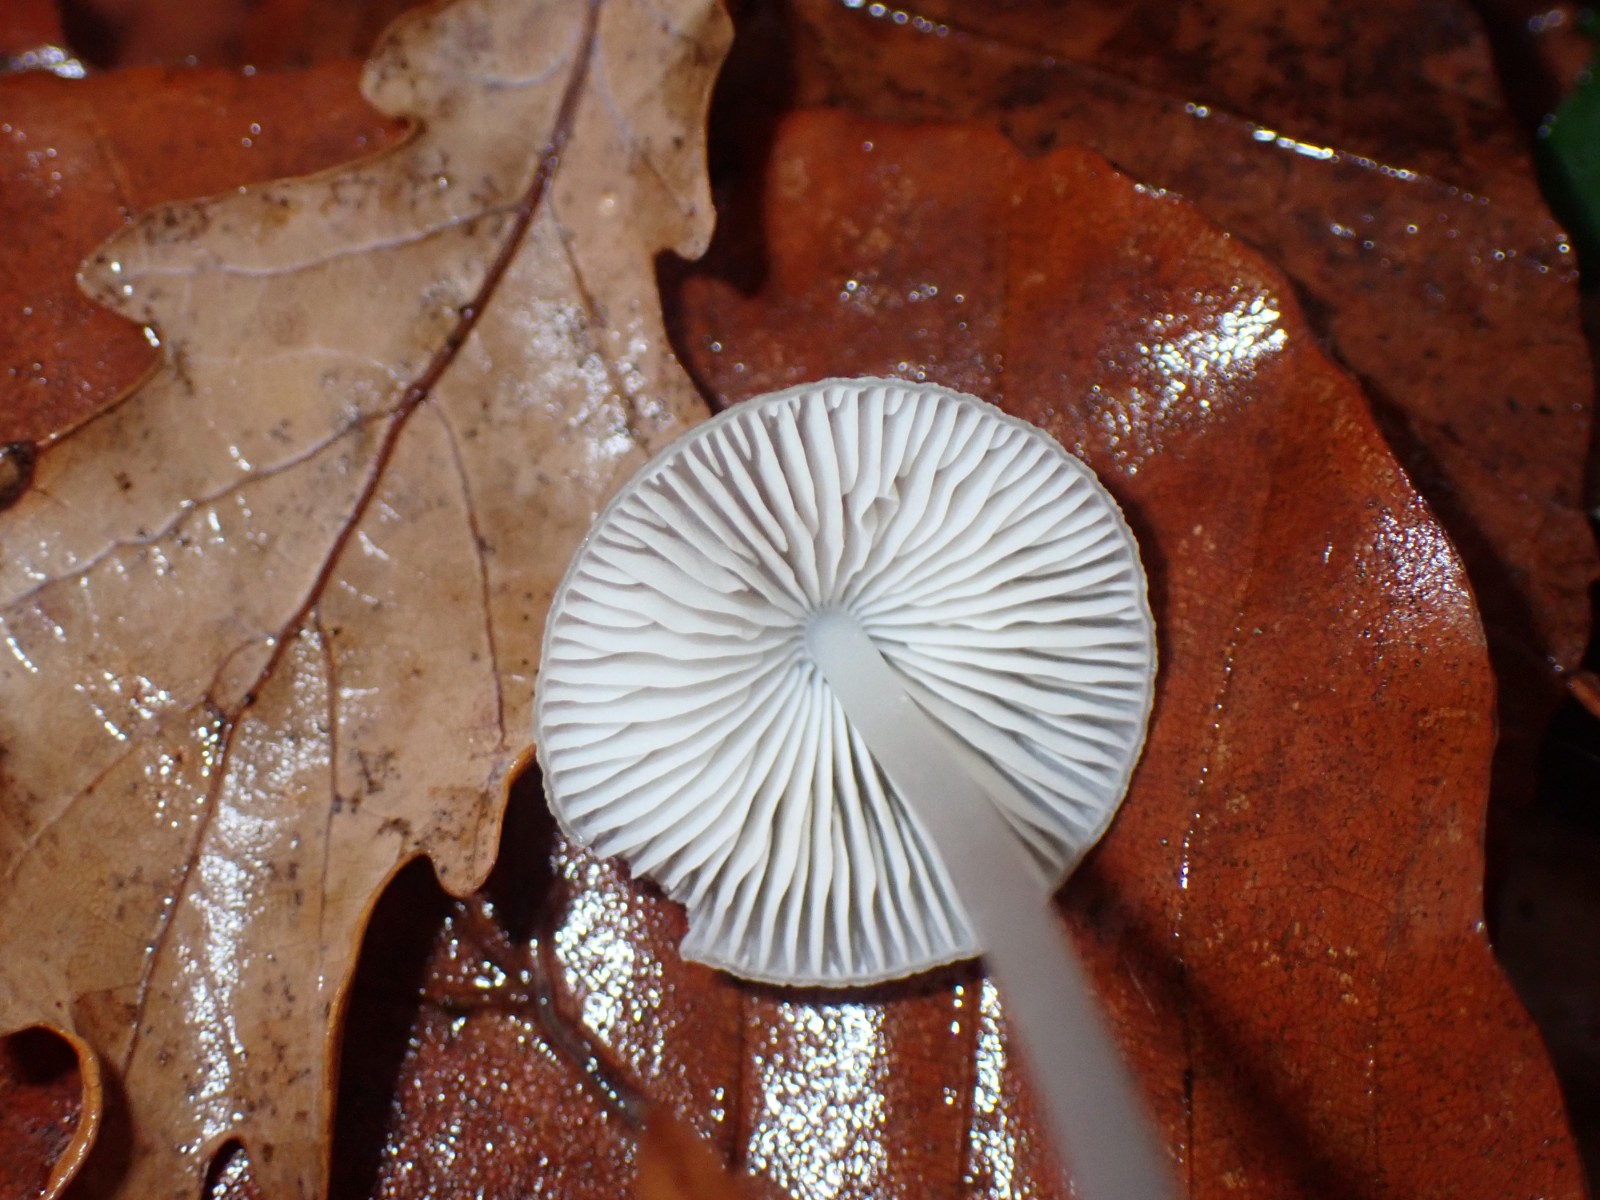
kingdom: Fungi
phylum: Basidiomycota
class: Agaricomycetes
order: Agaricales
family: Mycenaceae
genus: Mycena
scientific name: Mycena
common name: huesvamp
